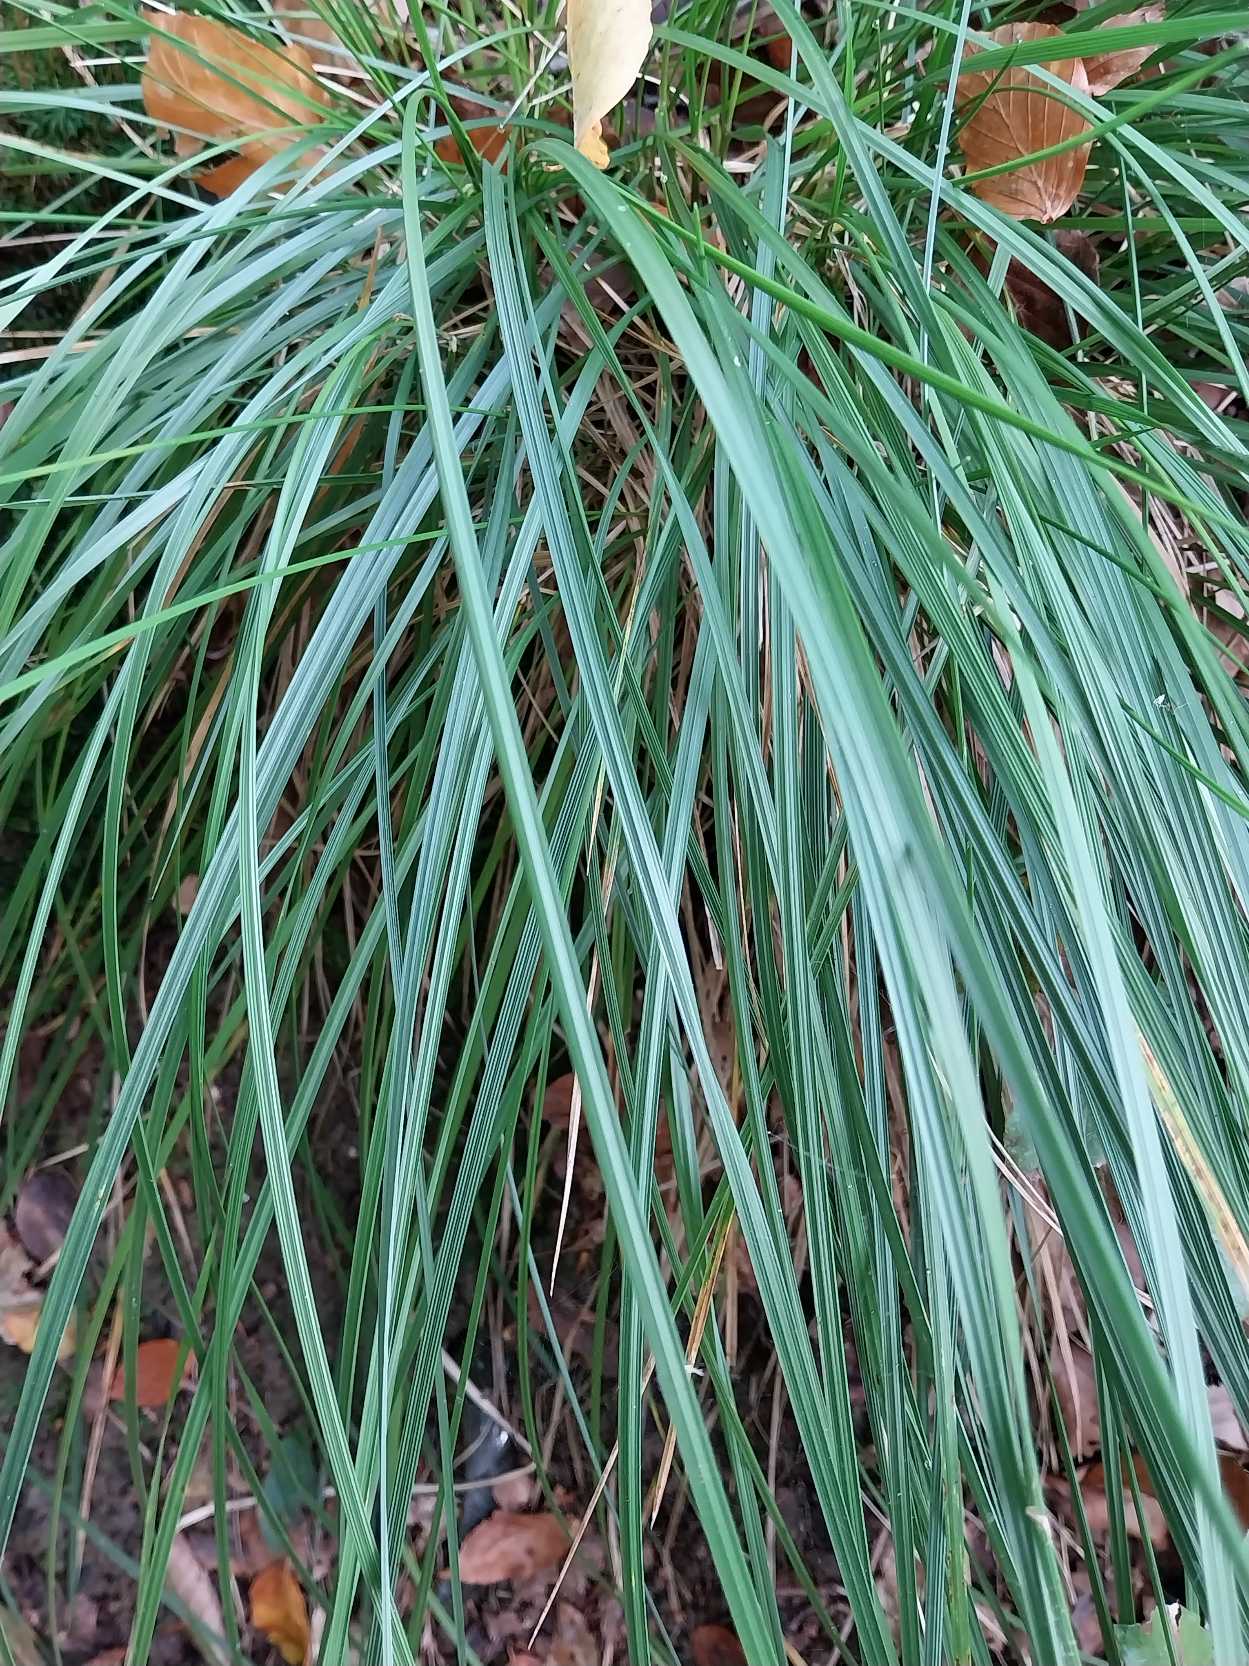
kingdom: Plantae
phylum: Tracheophyta
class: Liliopsida
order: Poales
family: Poaceae
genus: Deschampsia
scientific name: Deschampsia cespitosa
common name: Mose-bunke
